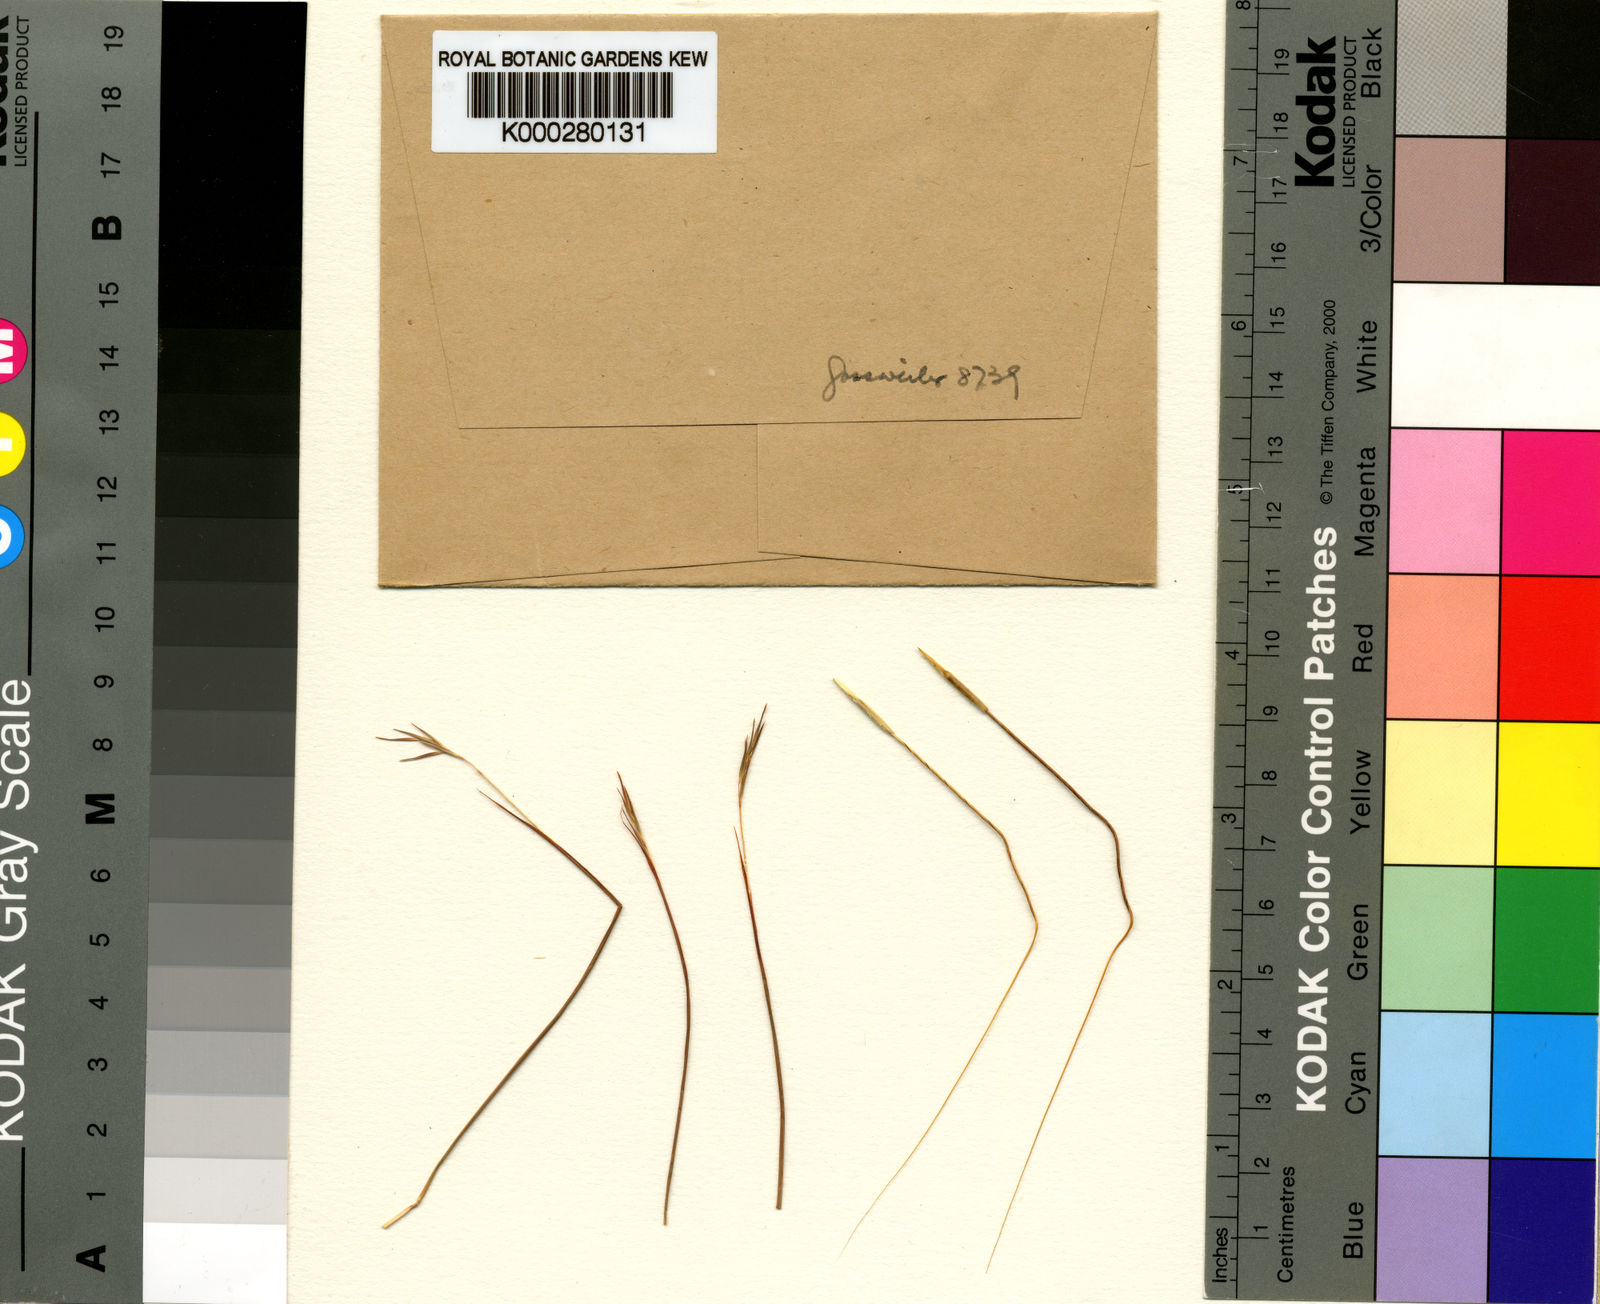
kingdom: Plantae
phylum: Tracheophyta
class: Liliopsida
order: Poales
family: Poaceae
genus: Elymandra
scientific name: Elymandra gossweileri
